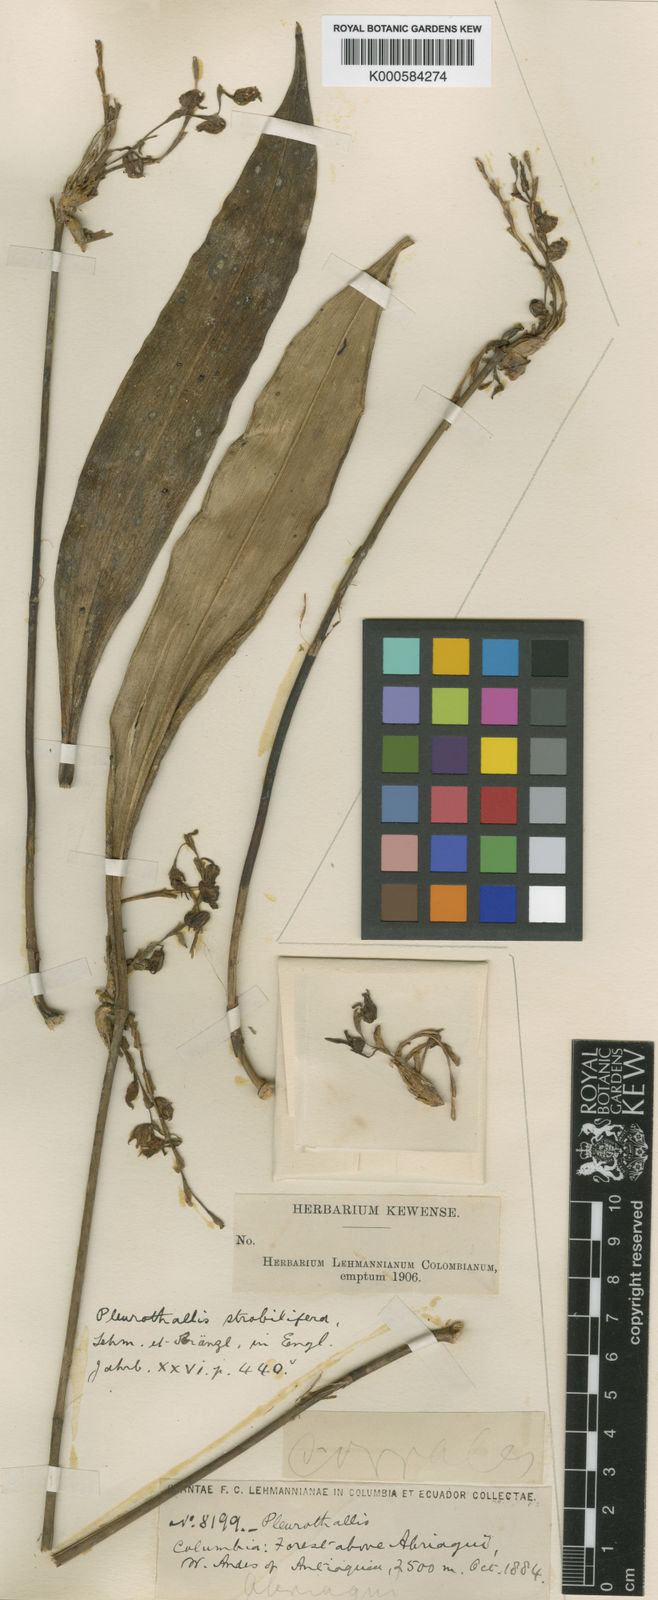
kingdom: Plantae
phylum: Tracheophyta
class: Liliopsida
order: Asparagales
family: Orchidaceae
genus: Pleurothallis
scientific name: Pleurothallis strobilifera
